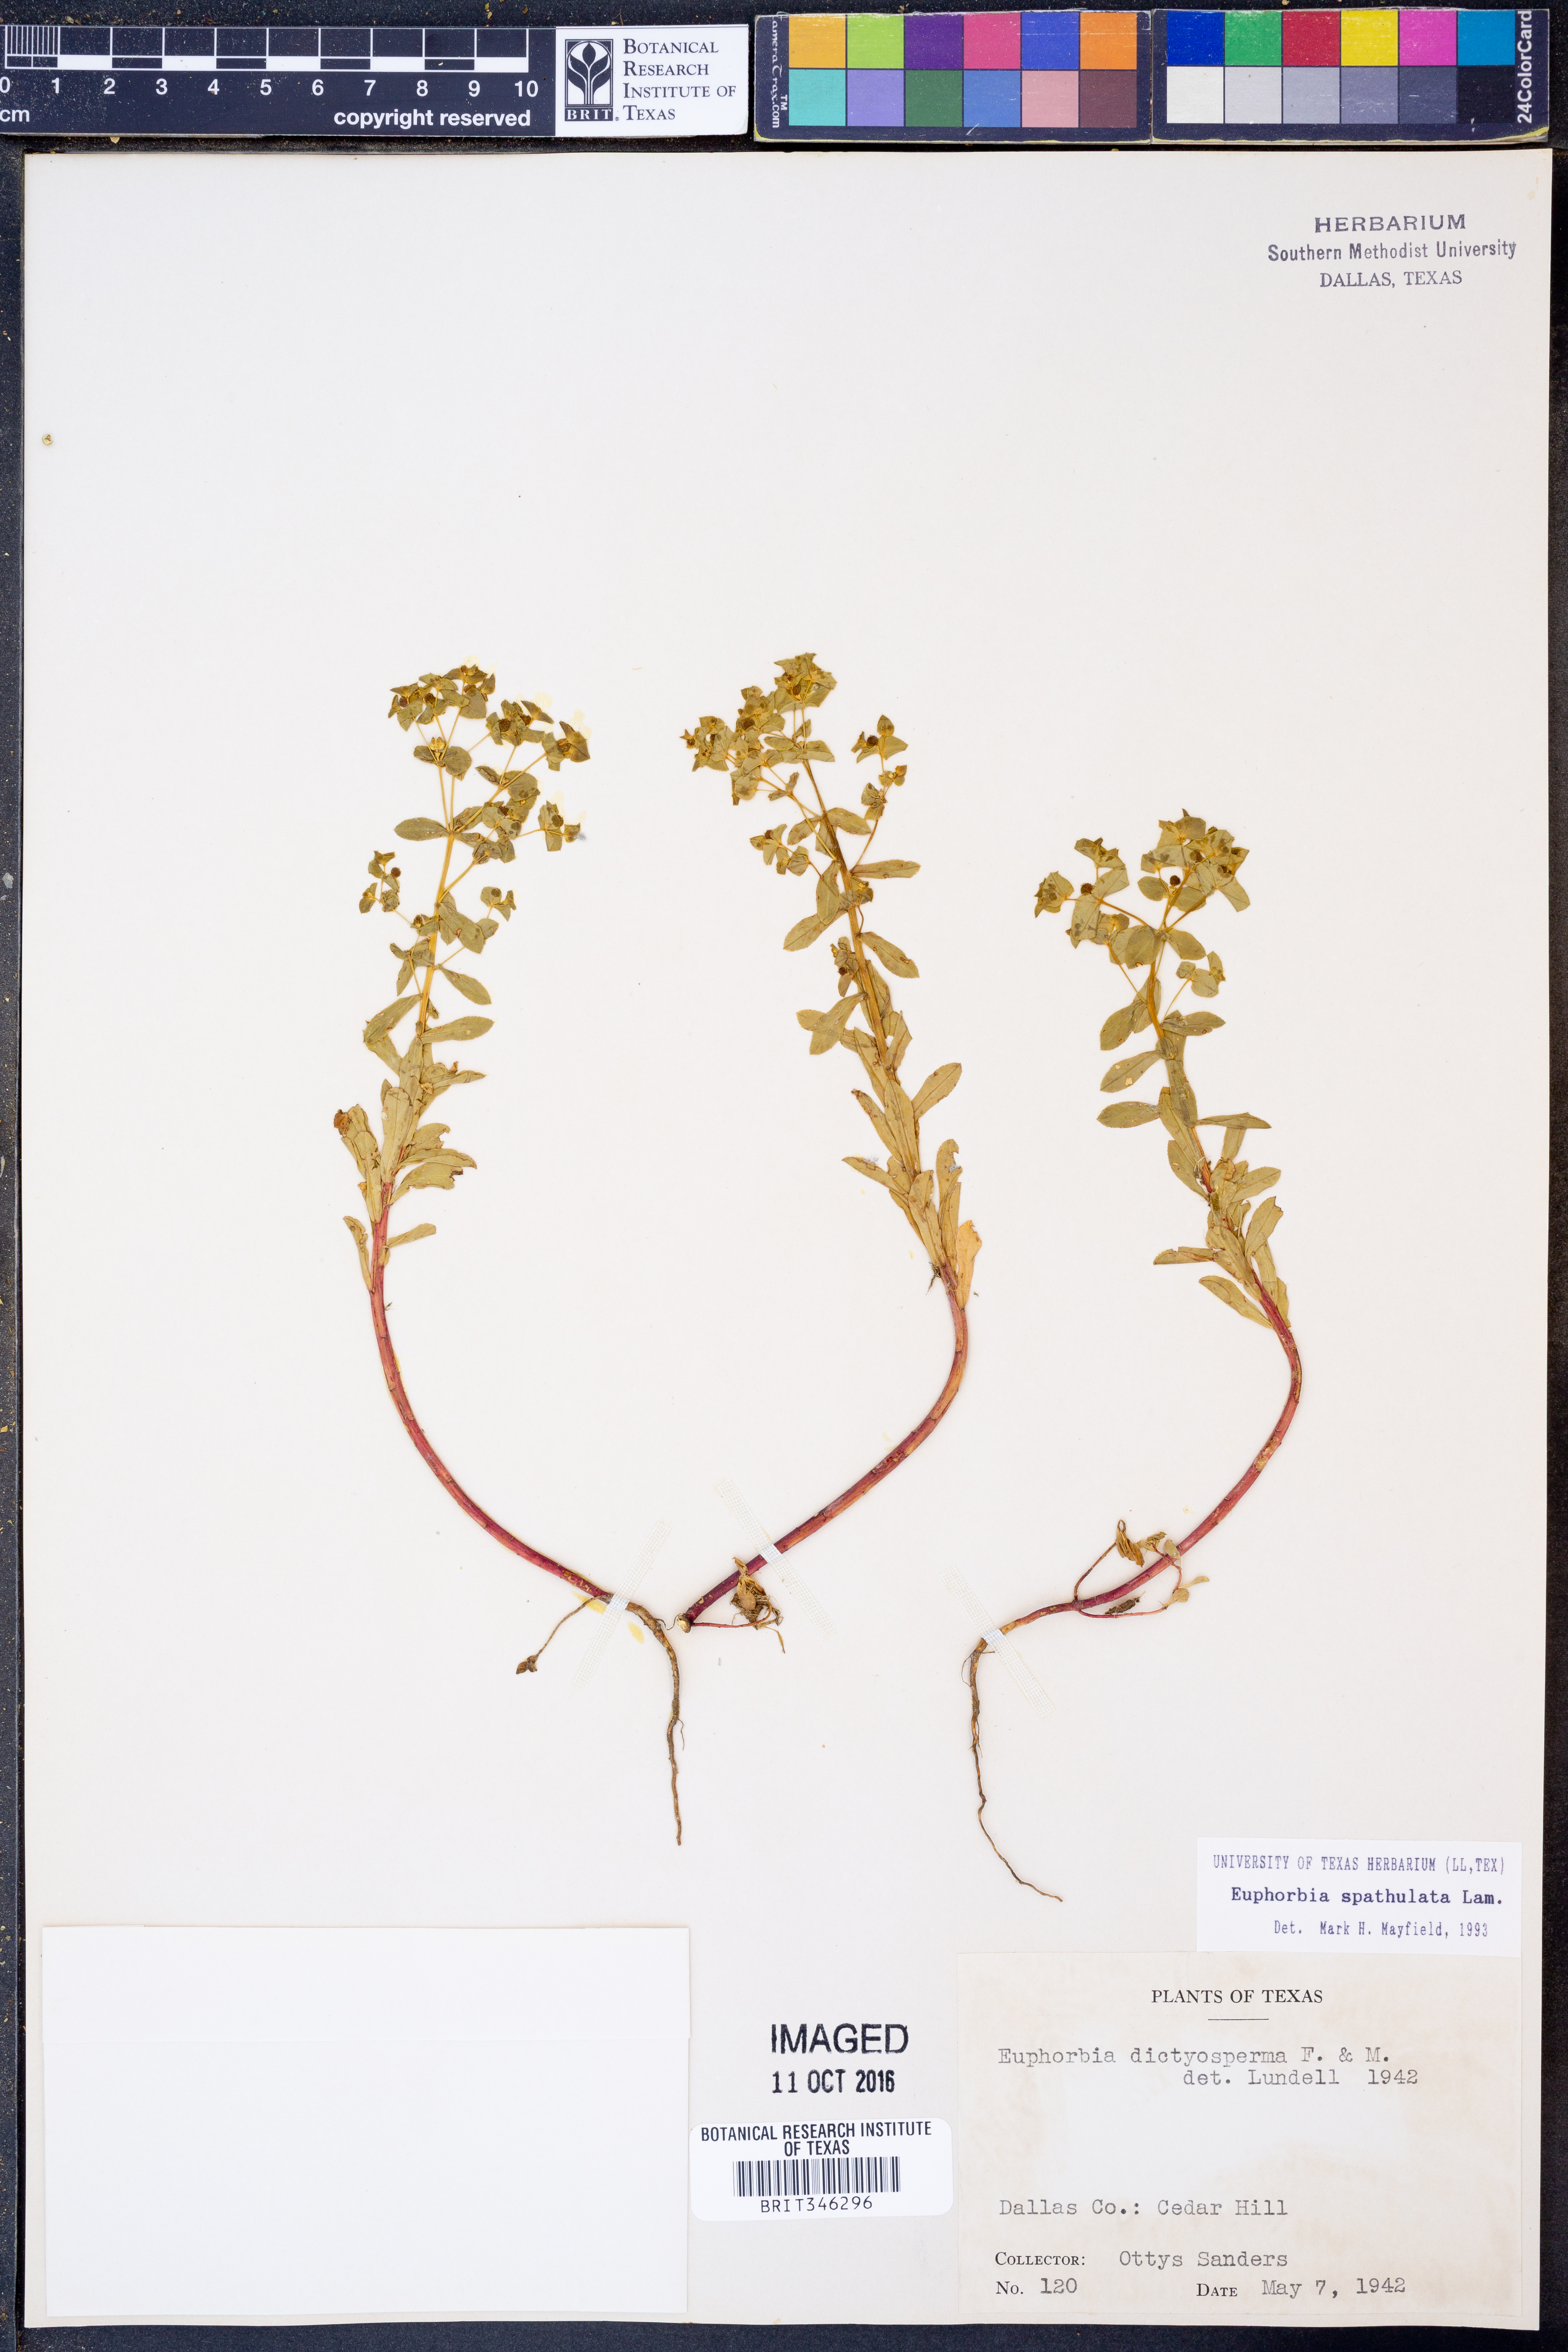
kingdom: Plantae
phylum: Tracheophyta
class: Magnoliopsida
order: Malpighiales
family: Euphorbiaceae
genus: Euphorbia
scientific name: Euphorbia spathulata
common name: Blunt spurge
